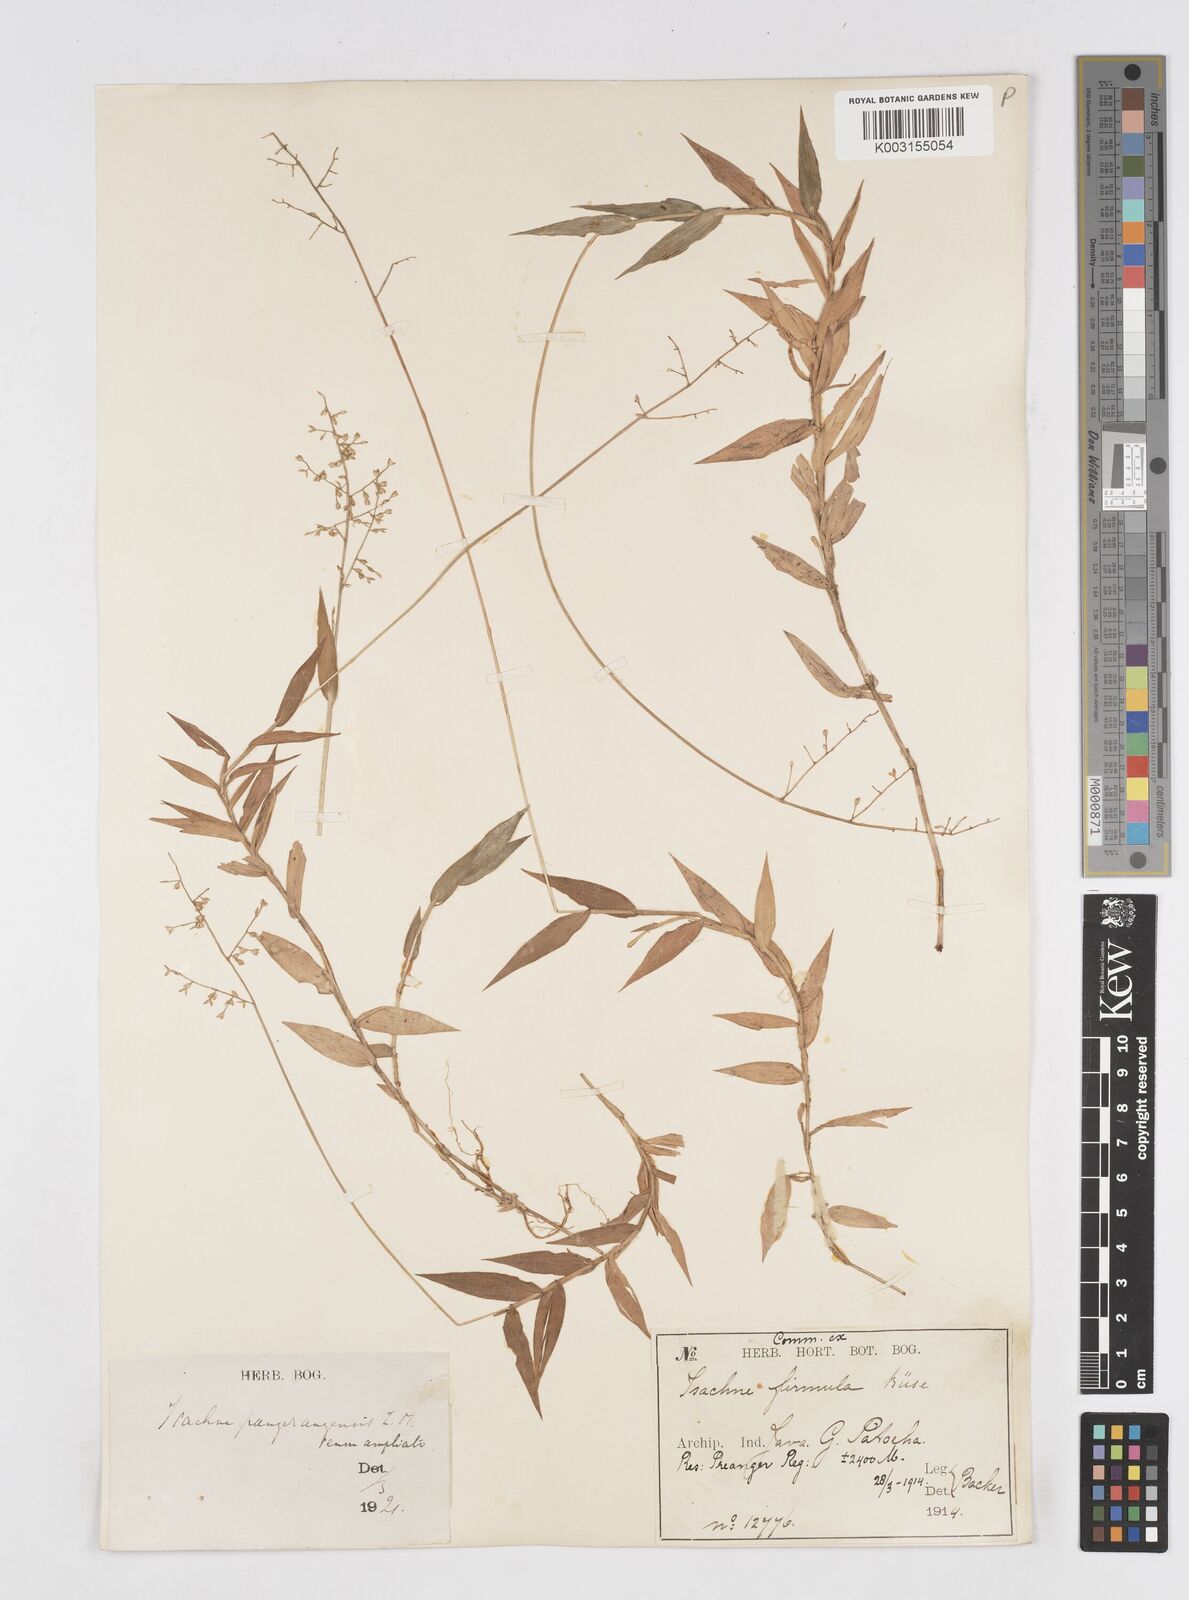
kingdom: Plantae
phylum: Tracheophyta
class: Liliopsida
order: Poales
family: Poaceae
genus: Isachne
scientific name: Isachne pangerangensis
